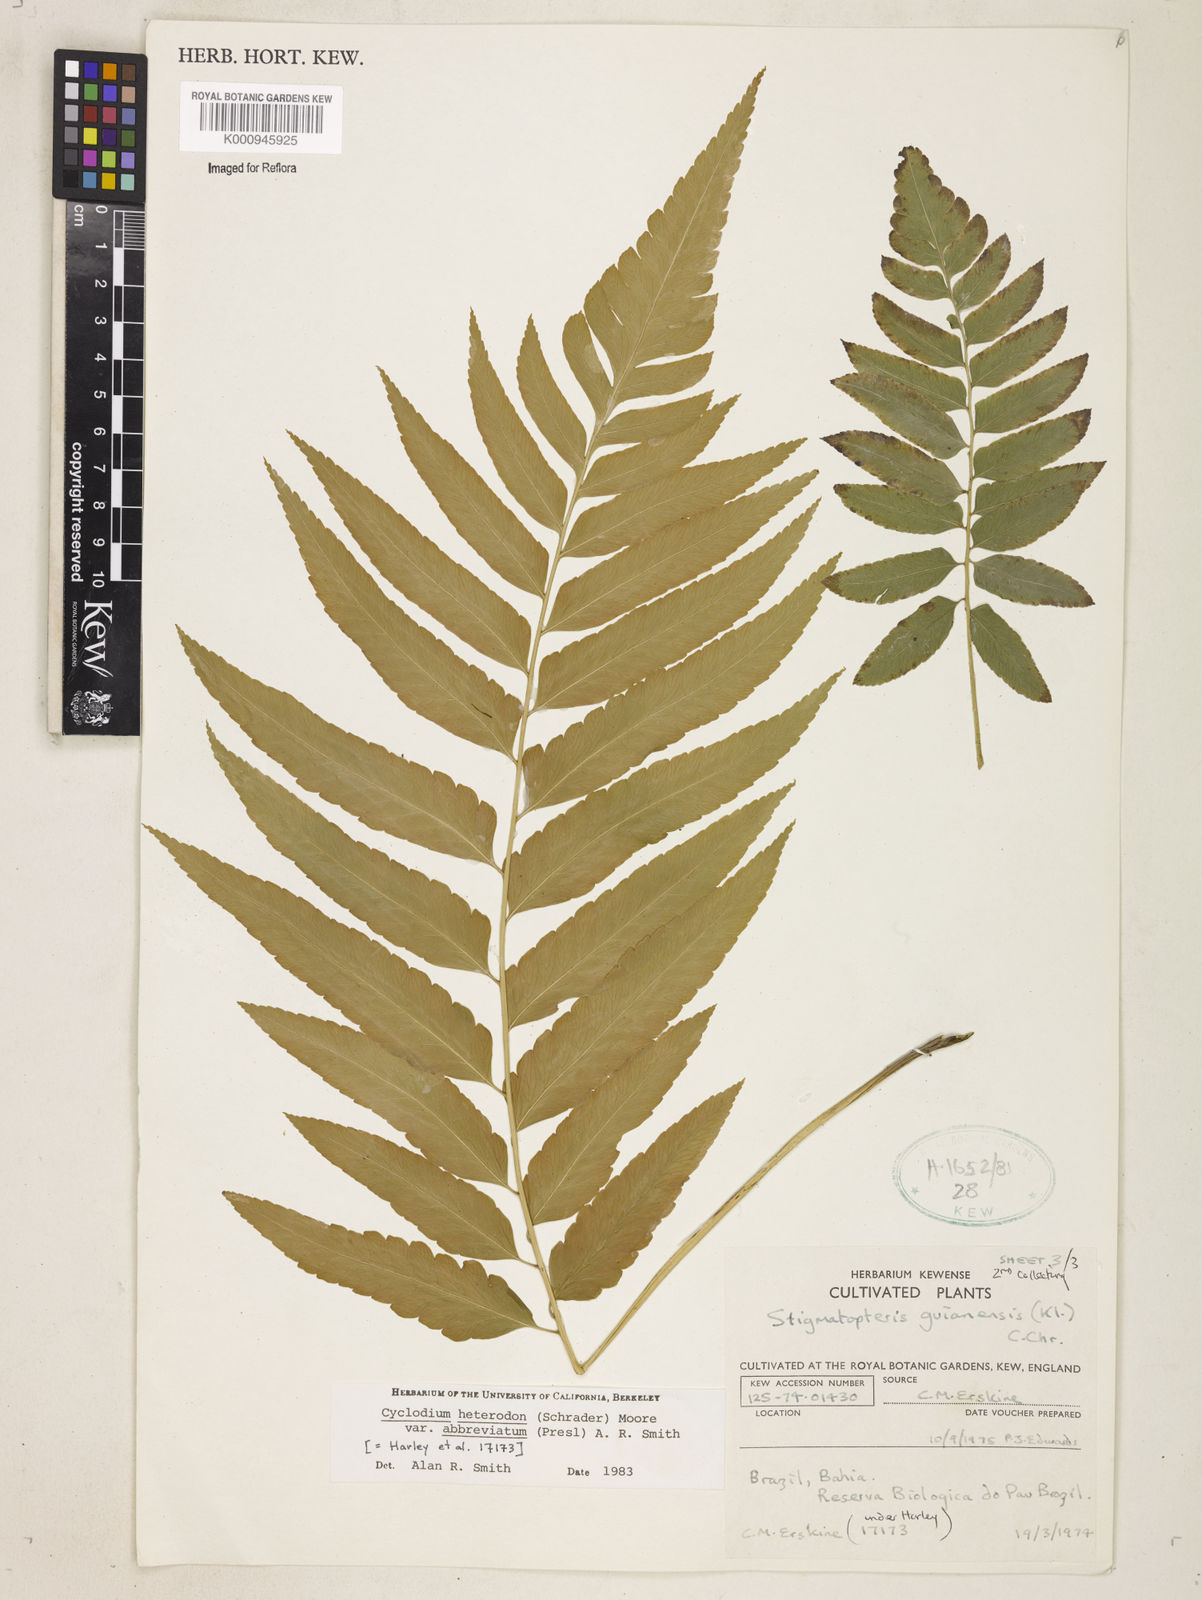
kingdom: Plantae
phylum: Tracheophyta
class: Polypodiopsida
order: Polypodiales
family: Dryopteridaceae
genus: Cyclodium
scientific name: Cyclodium heterodon
